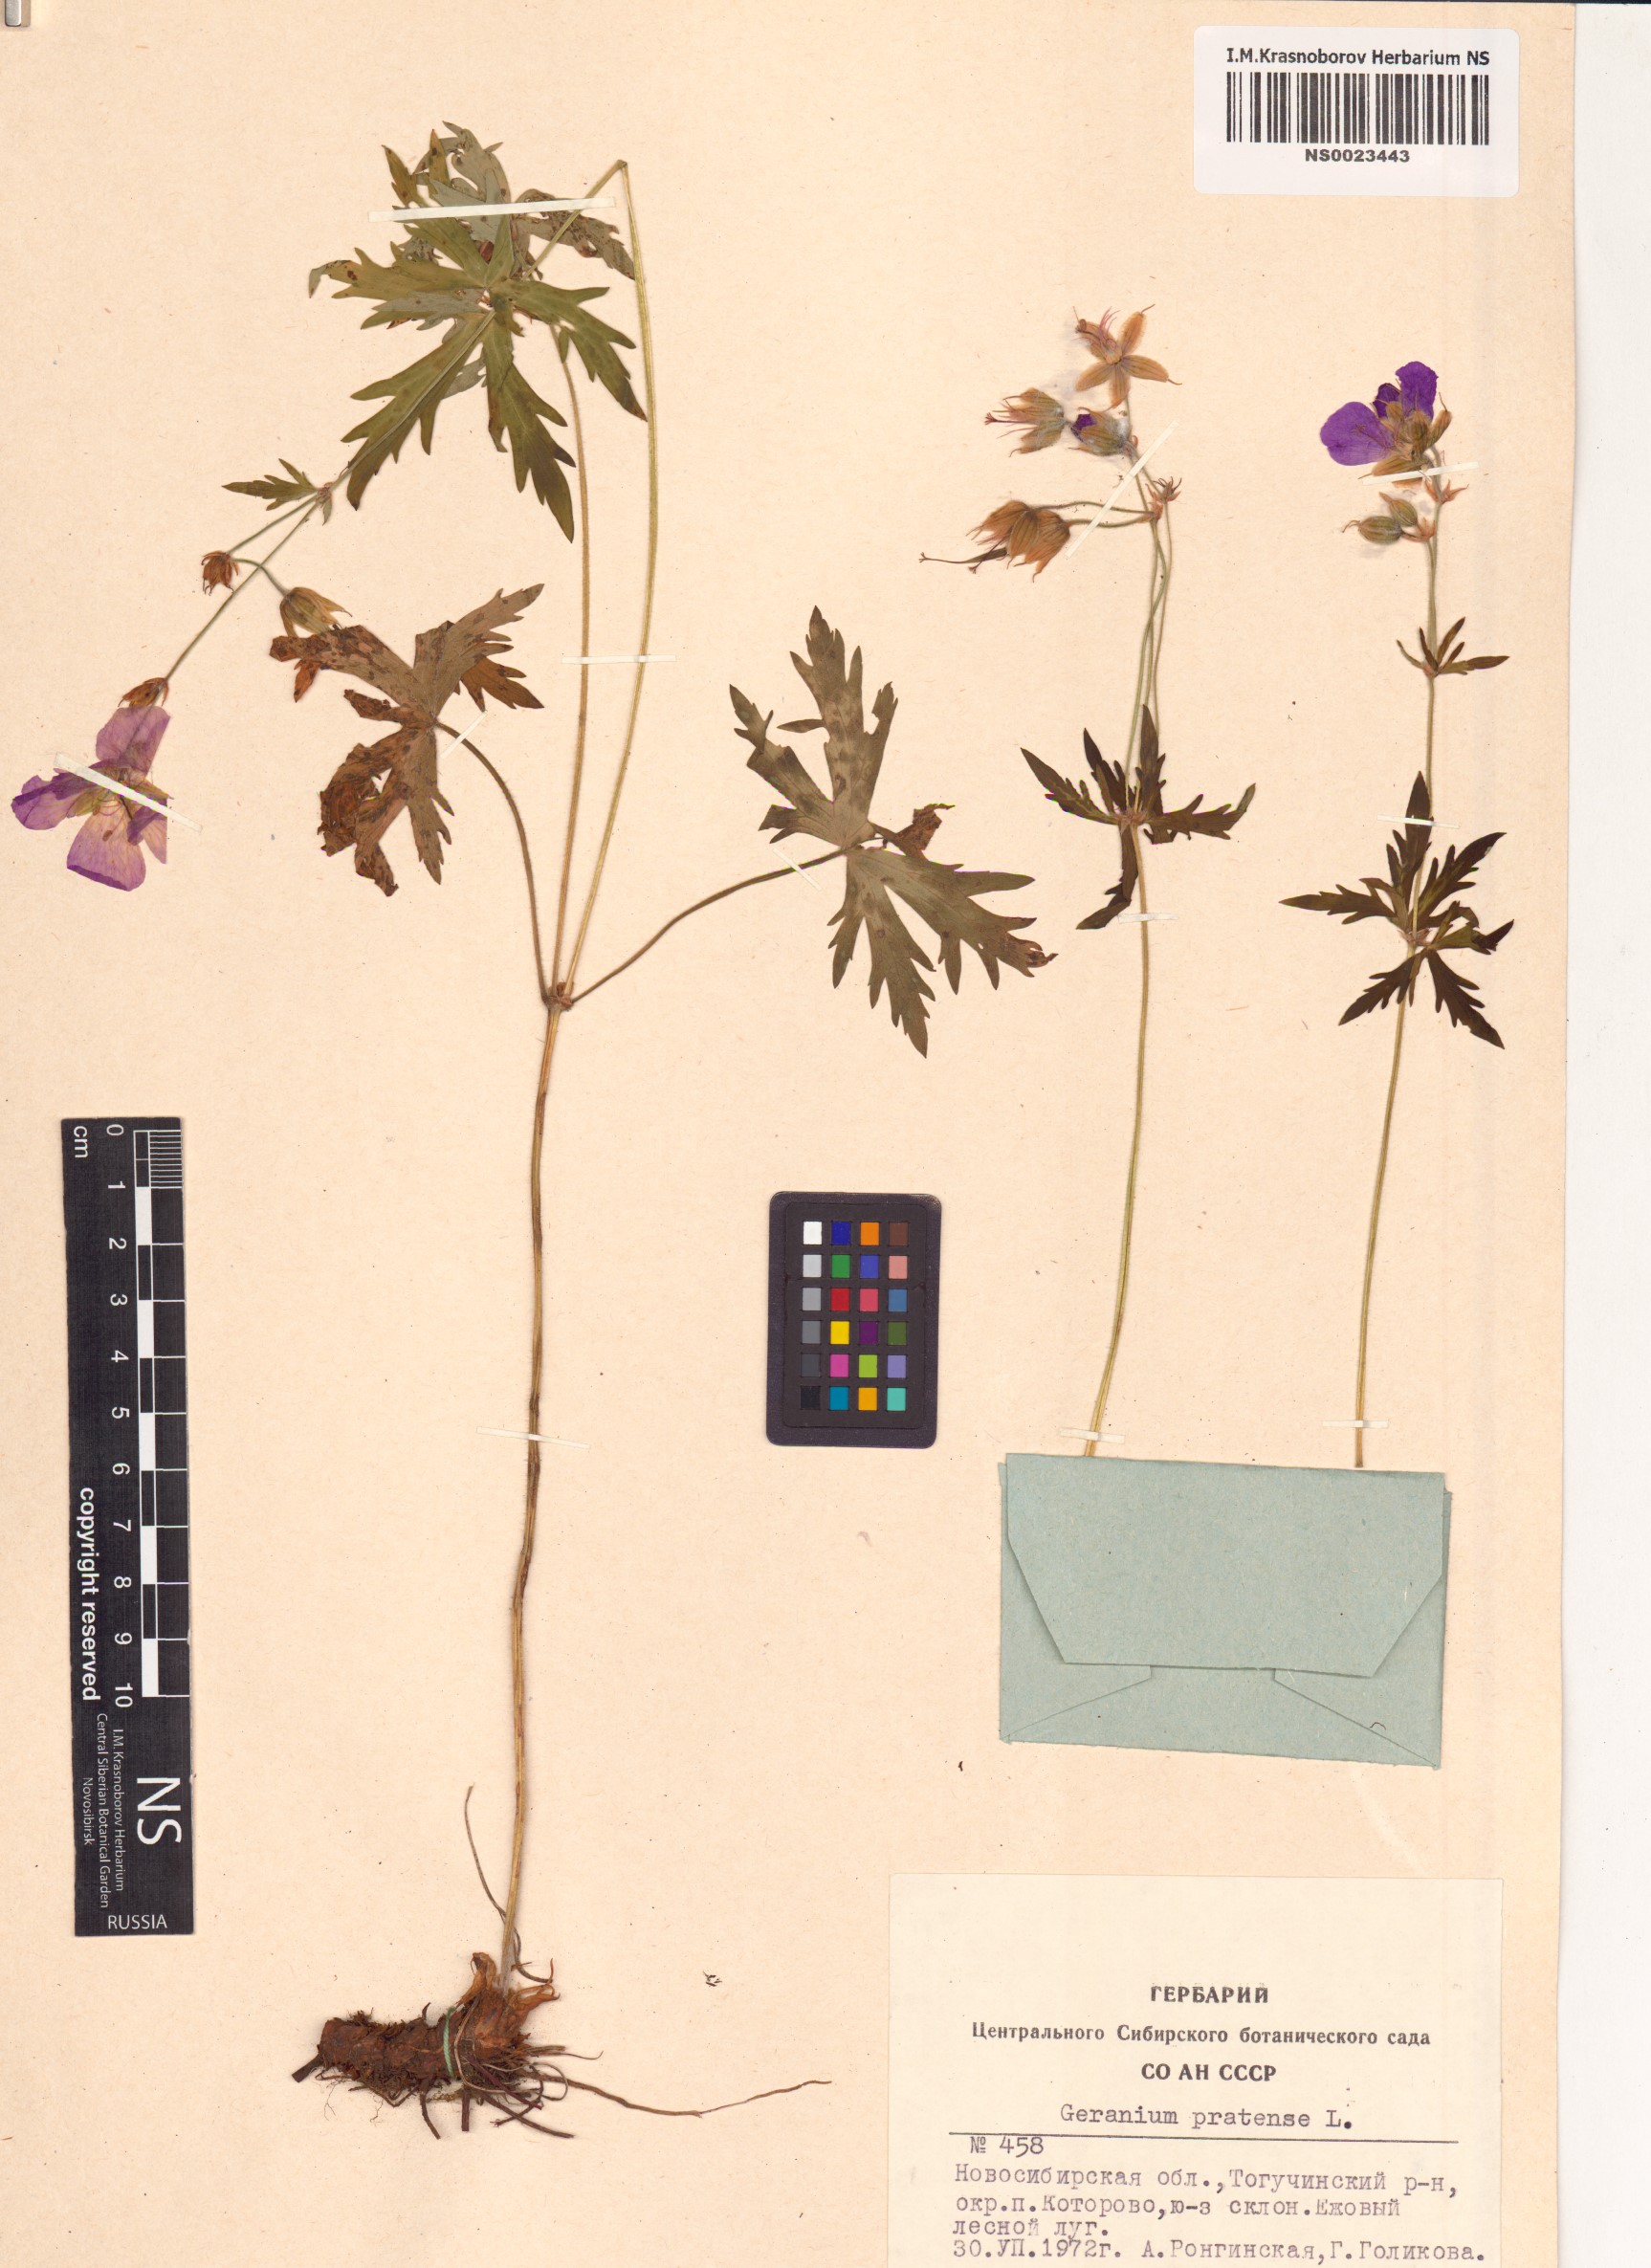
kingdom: Plantae
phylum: Tracheophyta
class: Magnoliopsida
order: Geraniales
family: Geraniaceae
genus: Geranium
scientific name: Geranium pratense
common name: Meadow crane's-bill
